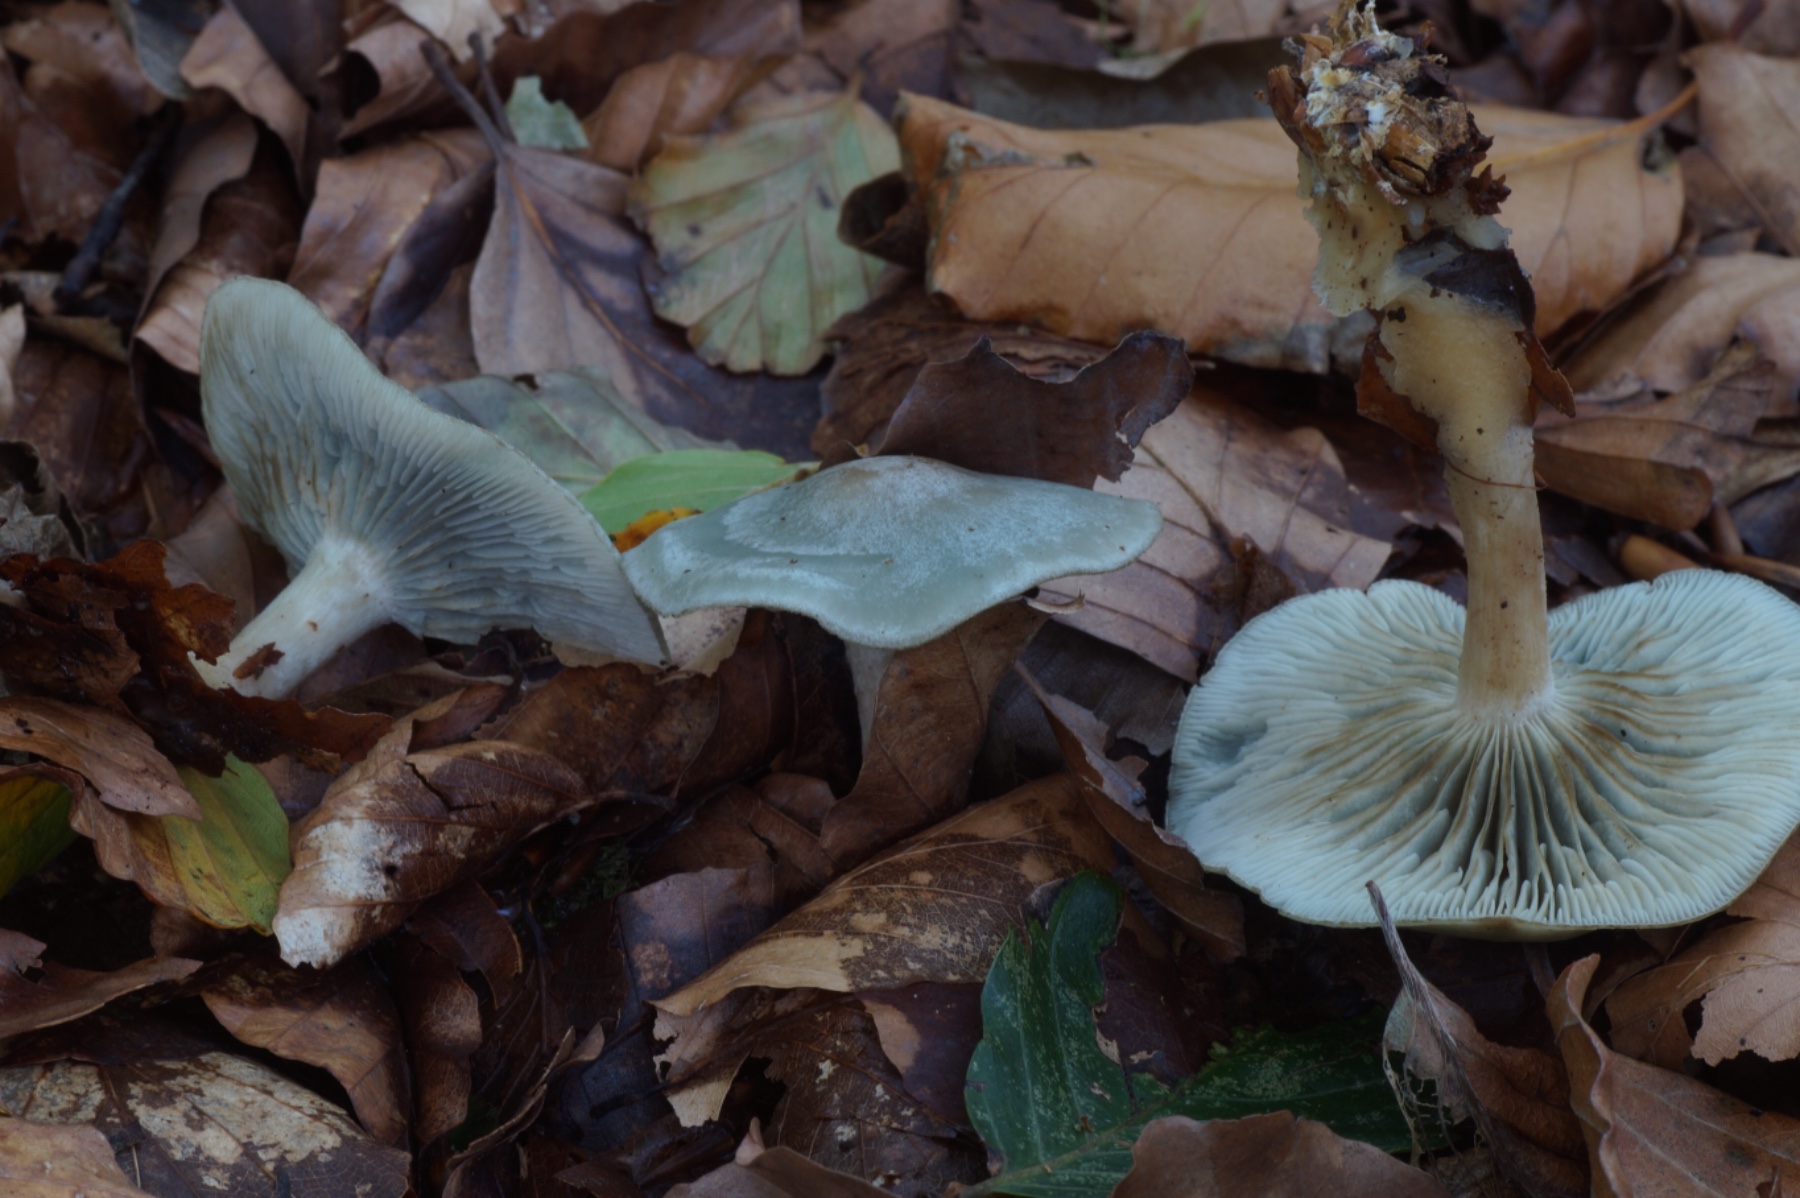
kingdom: Fungi
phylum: Basidiomycota
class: Agaricomycetes
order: Agaricales
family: Tricholomataceae
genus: Clitocybe
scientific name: Clitocybe odora
